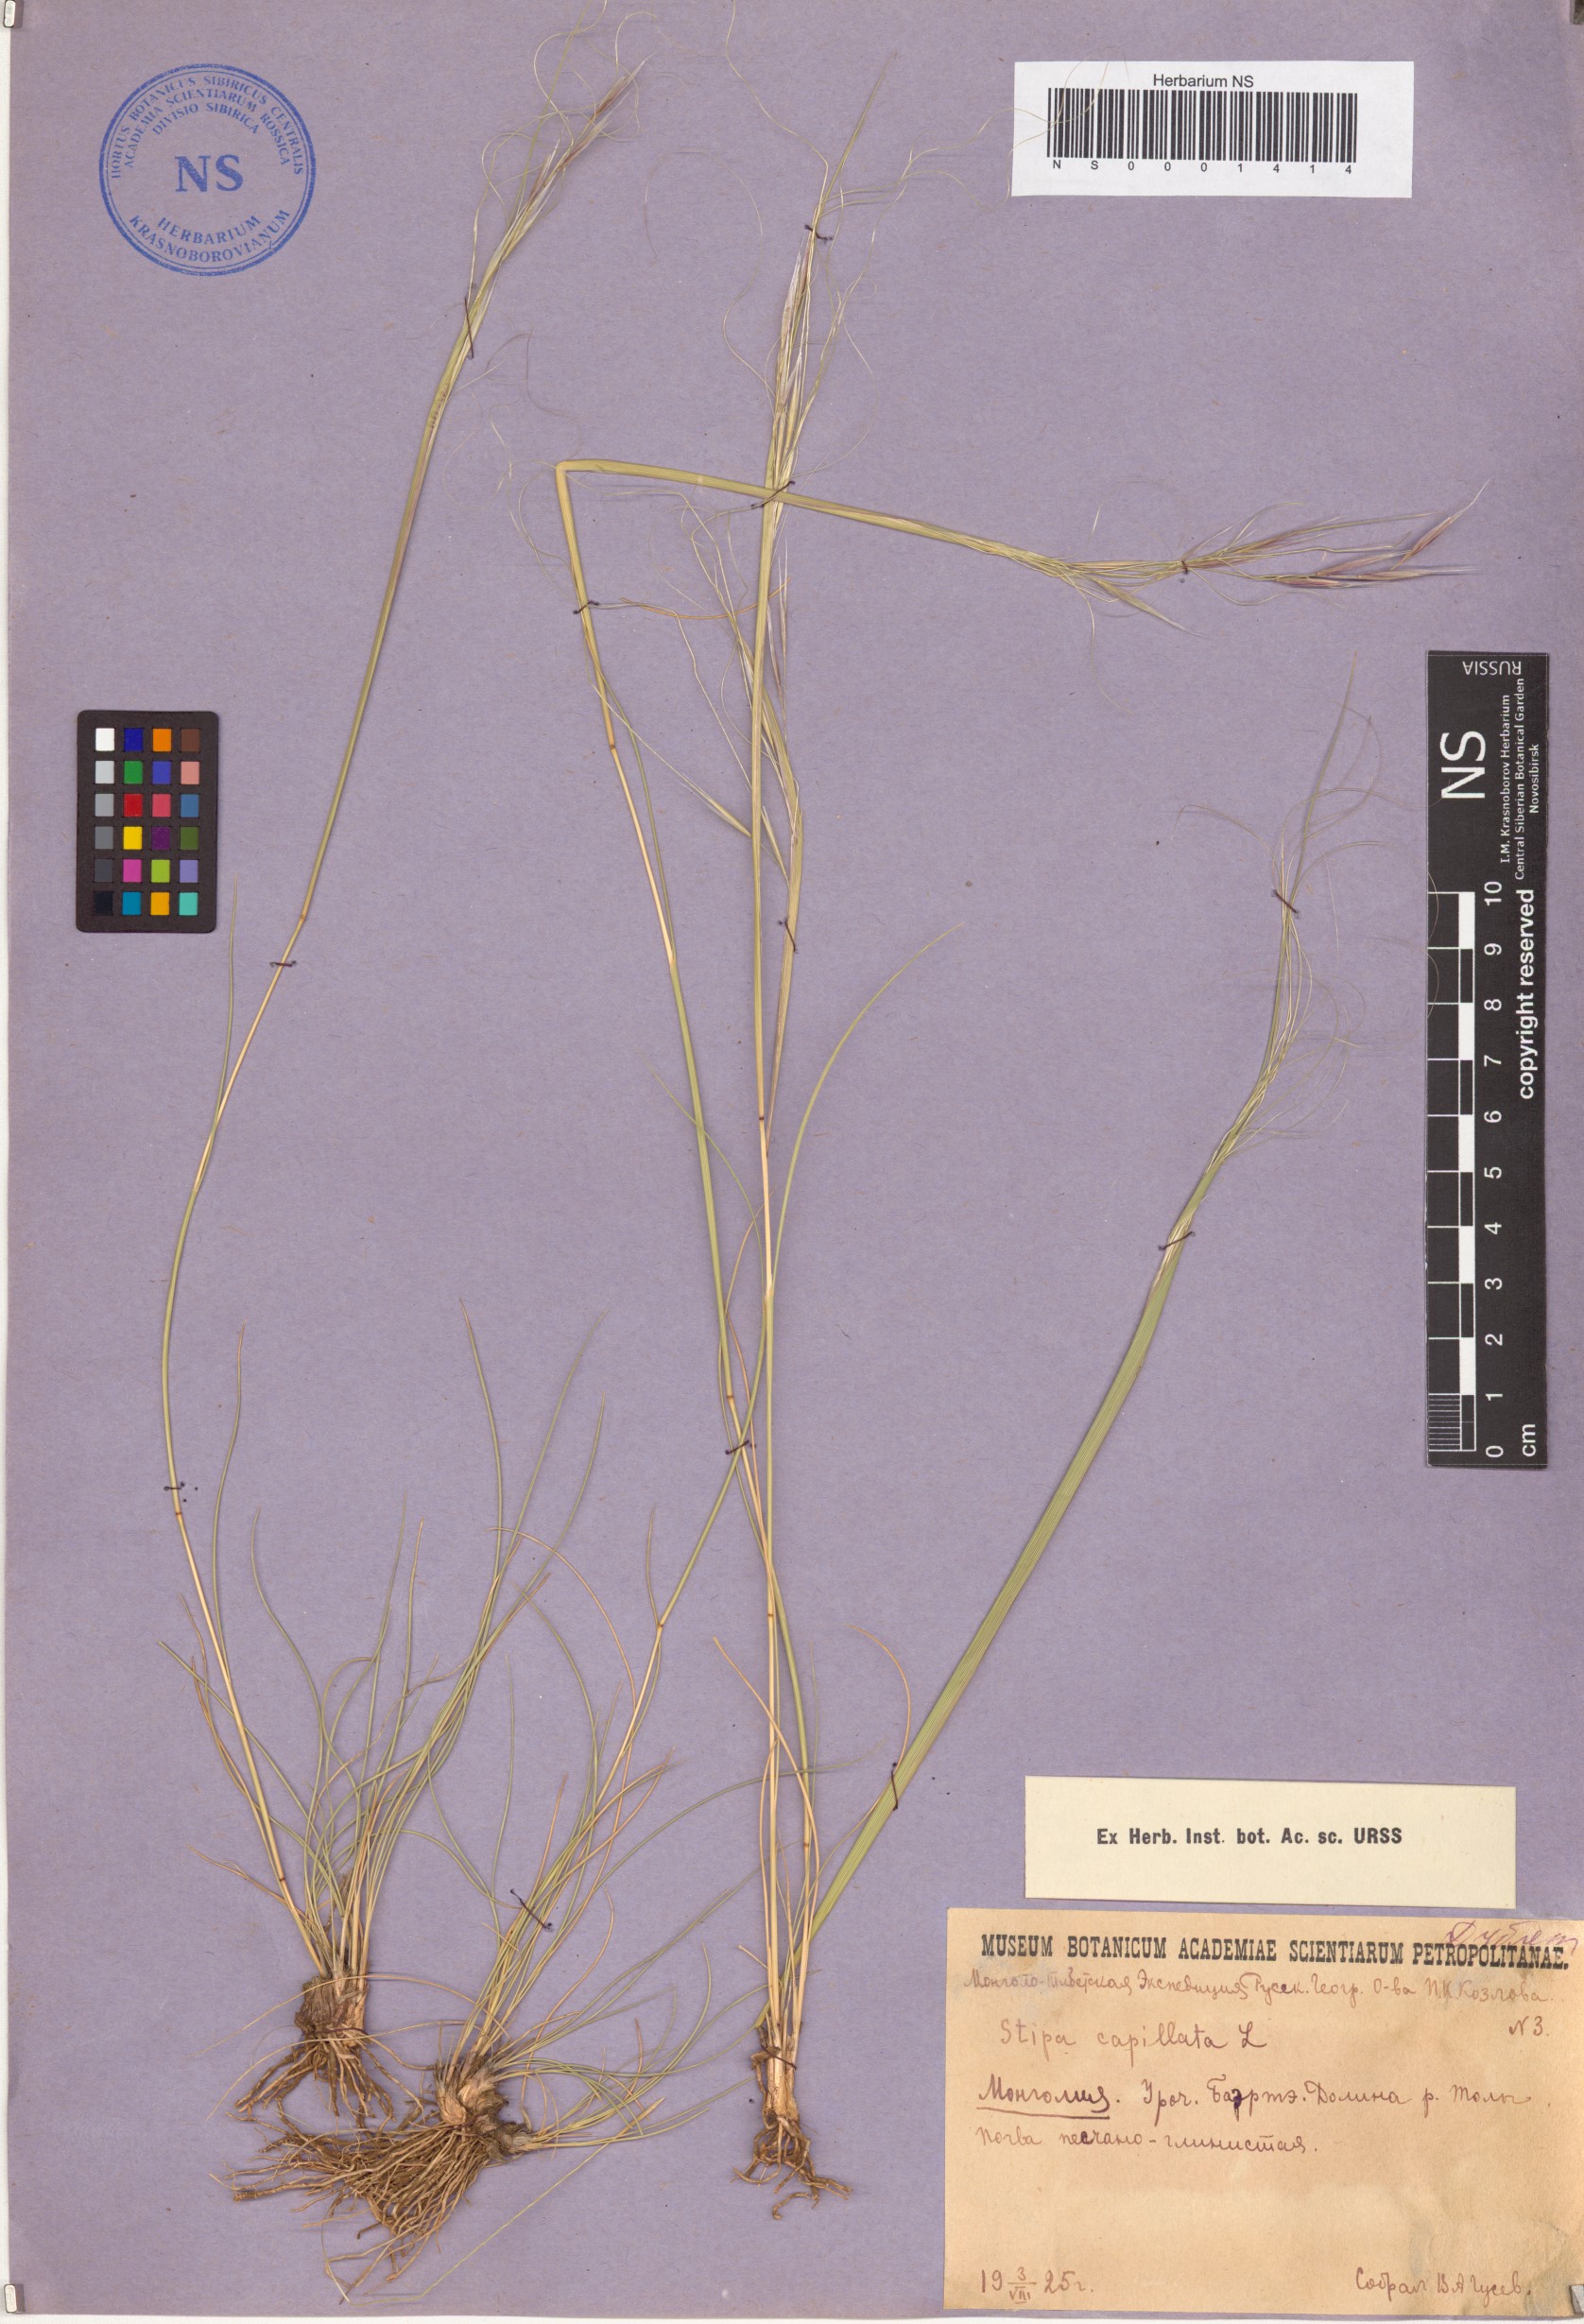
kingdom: Plantae
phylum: Tracheophyta
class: Liliopsida
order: Poales
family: Poaceae
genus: Stipa
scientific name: Stipa capillata
